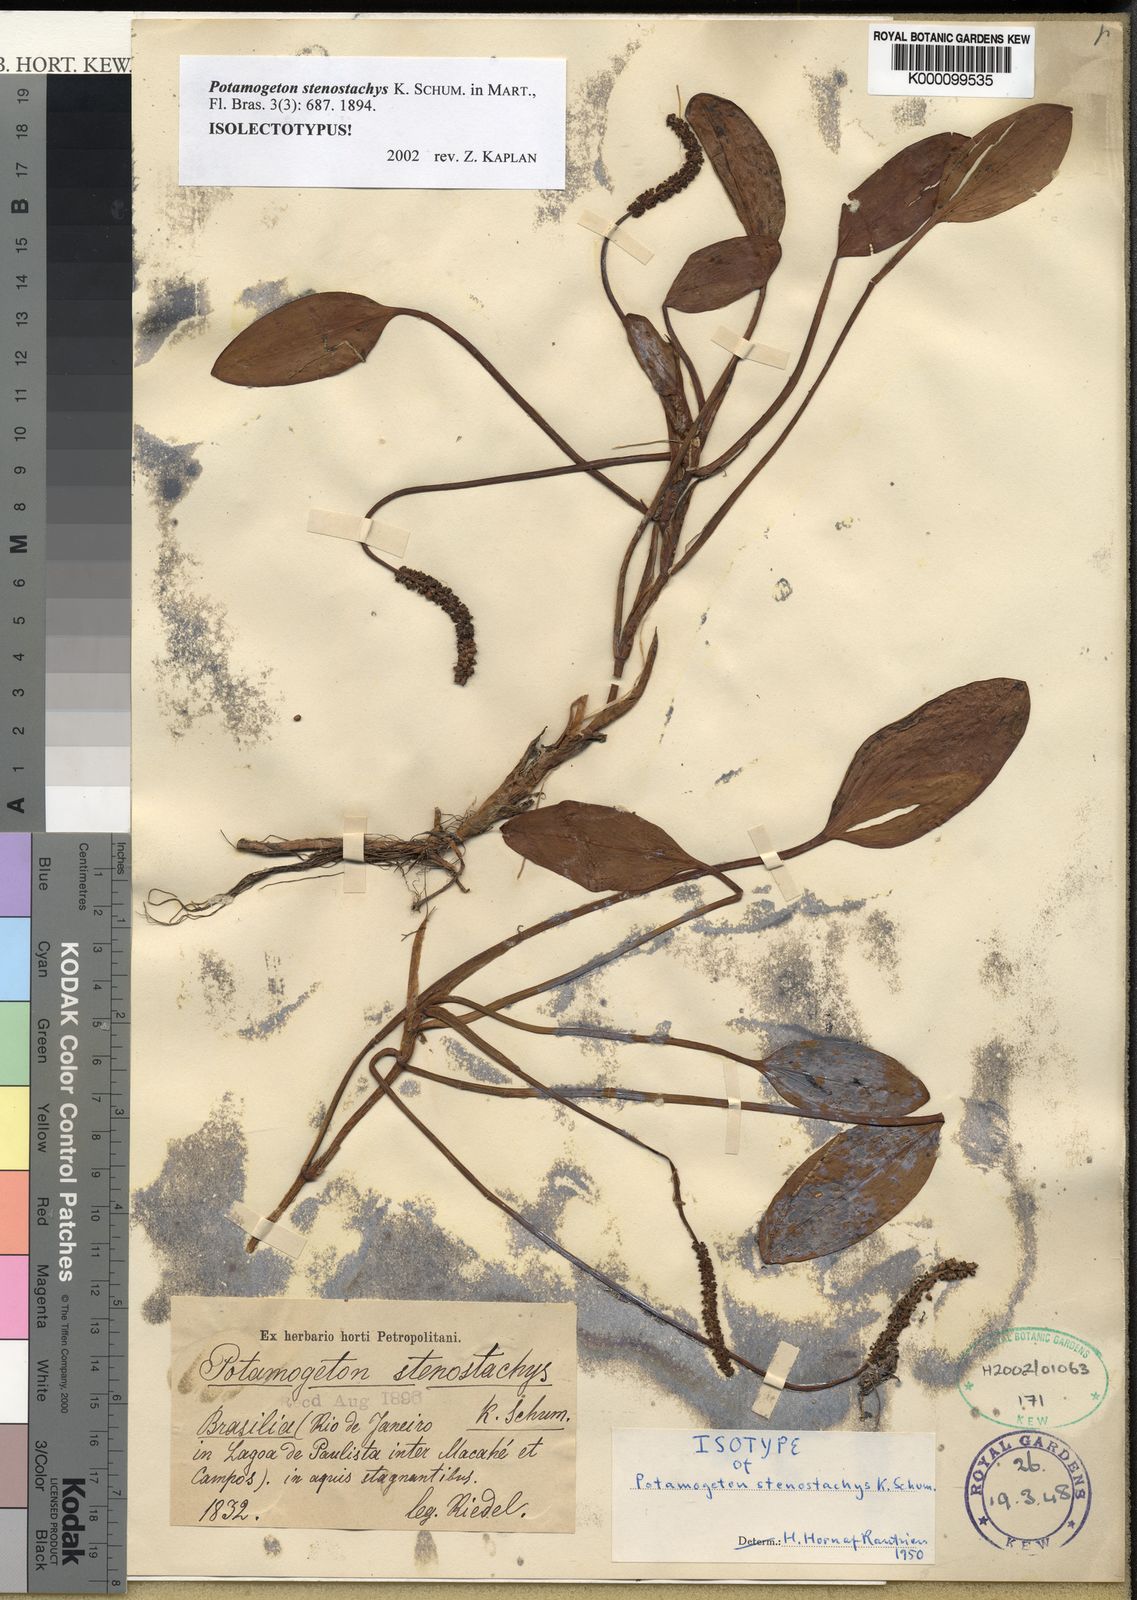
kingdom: Plantae
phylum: Tracheophyta
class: Liliopsida
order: Alismatales
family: Potamogetonaceae
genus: Potamogeton
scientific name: Potamogeton stenostachys
